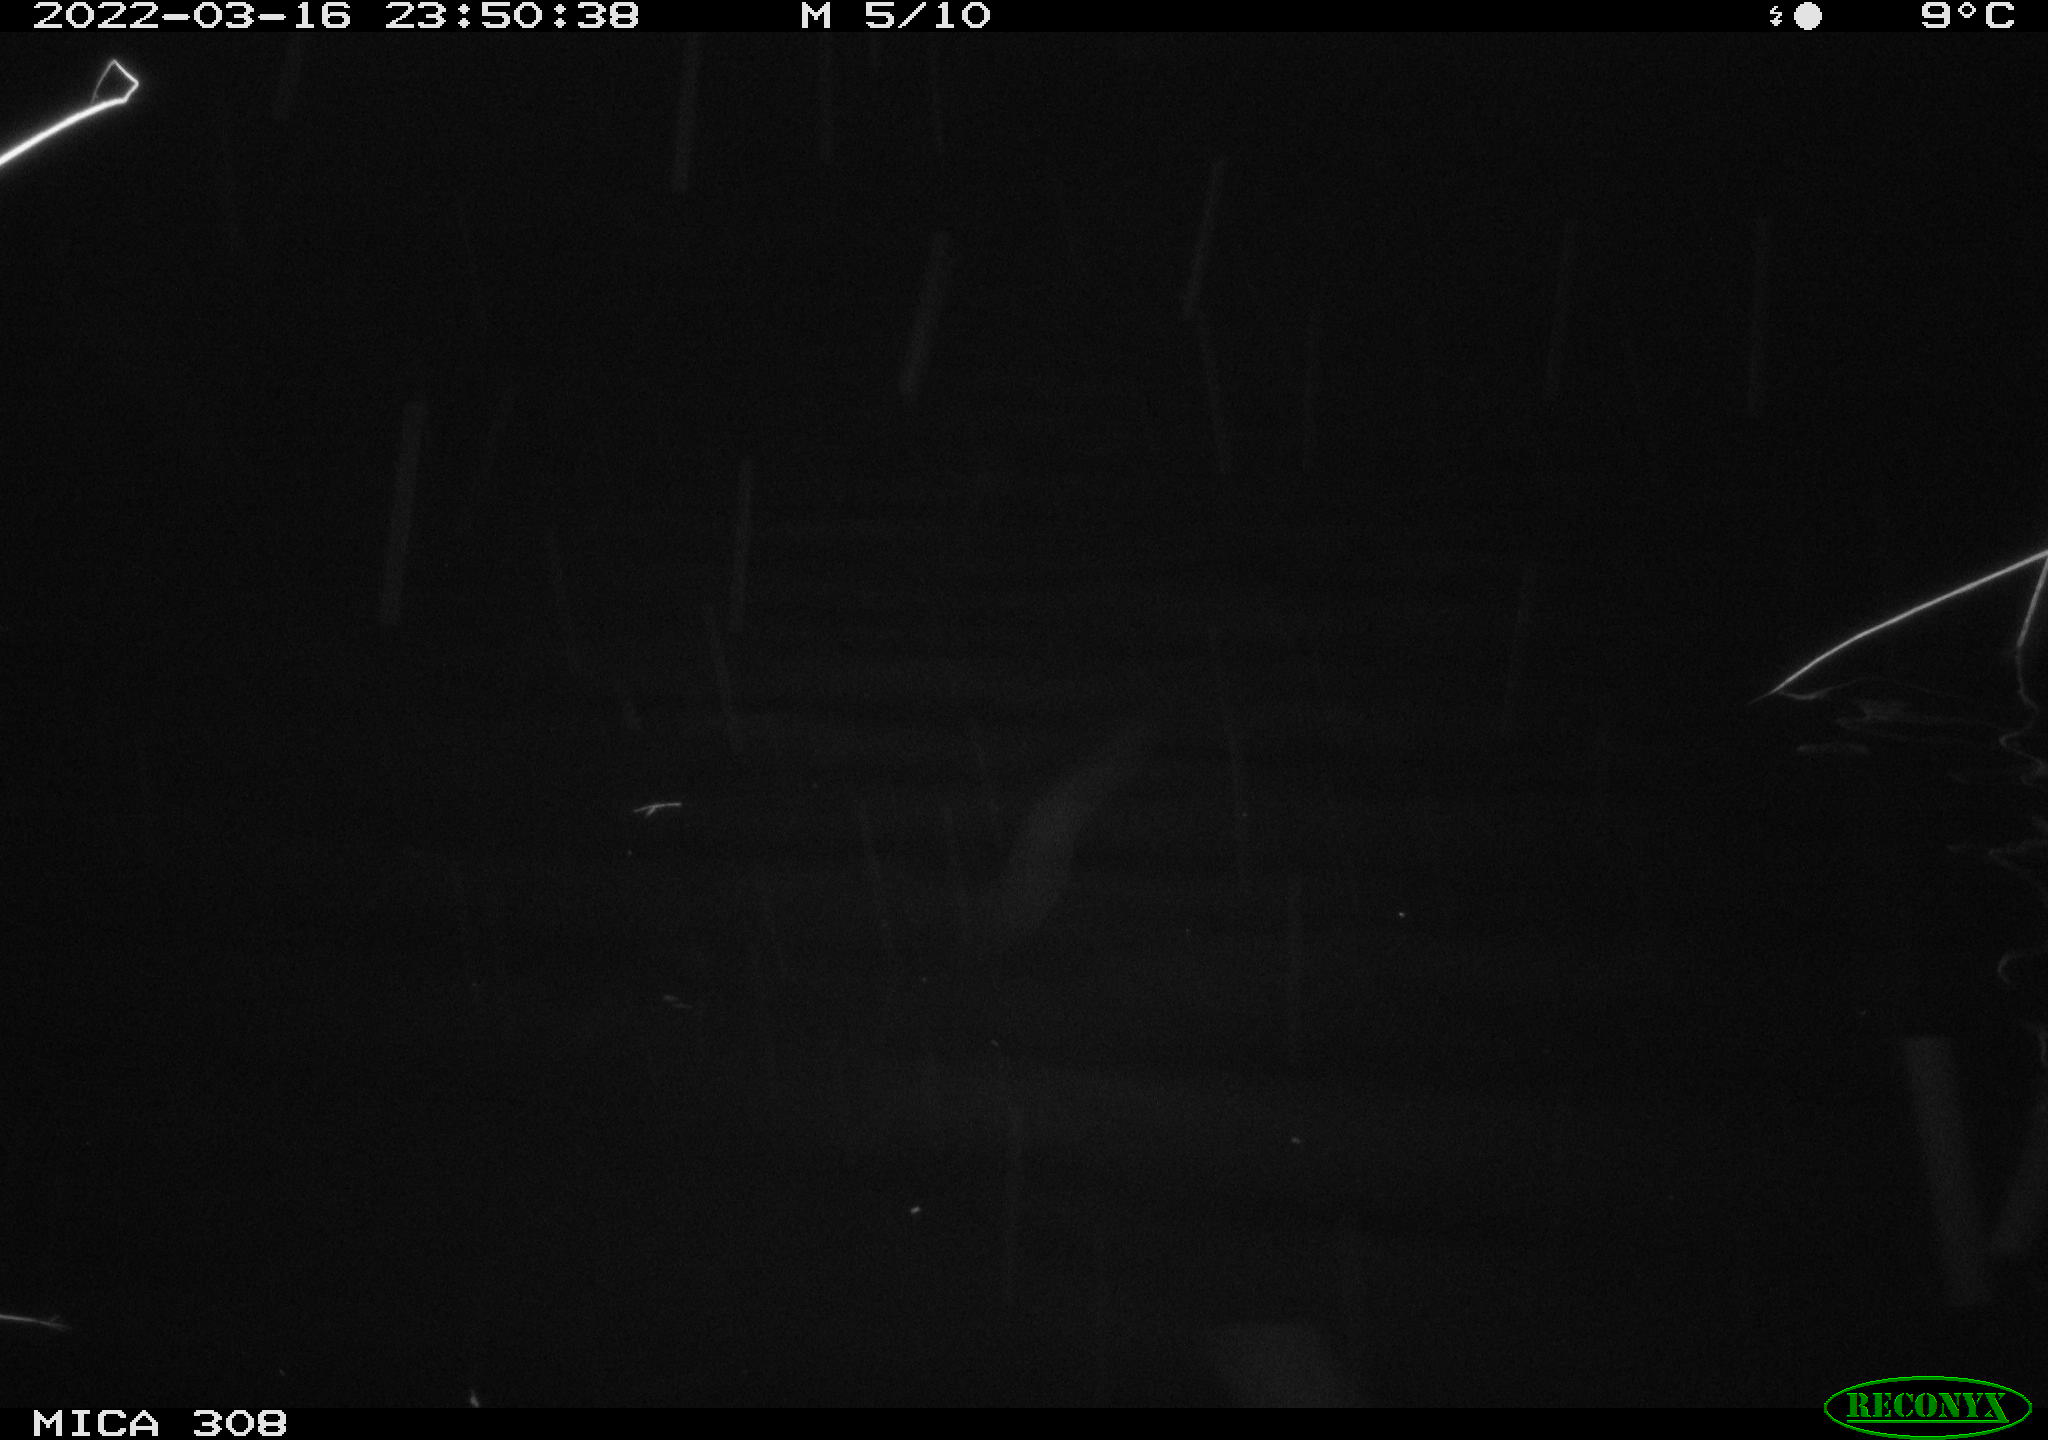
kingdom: Animalia
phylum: Chordata
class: Mammalia
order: Rodentia
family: Cricetidae
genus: Ondatra
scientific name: Ondatra zibethicus
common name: Muskrat
